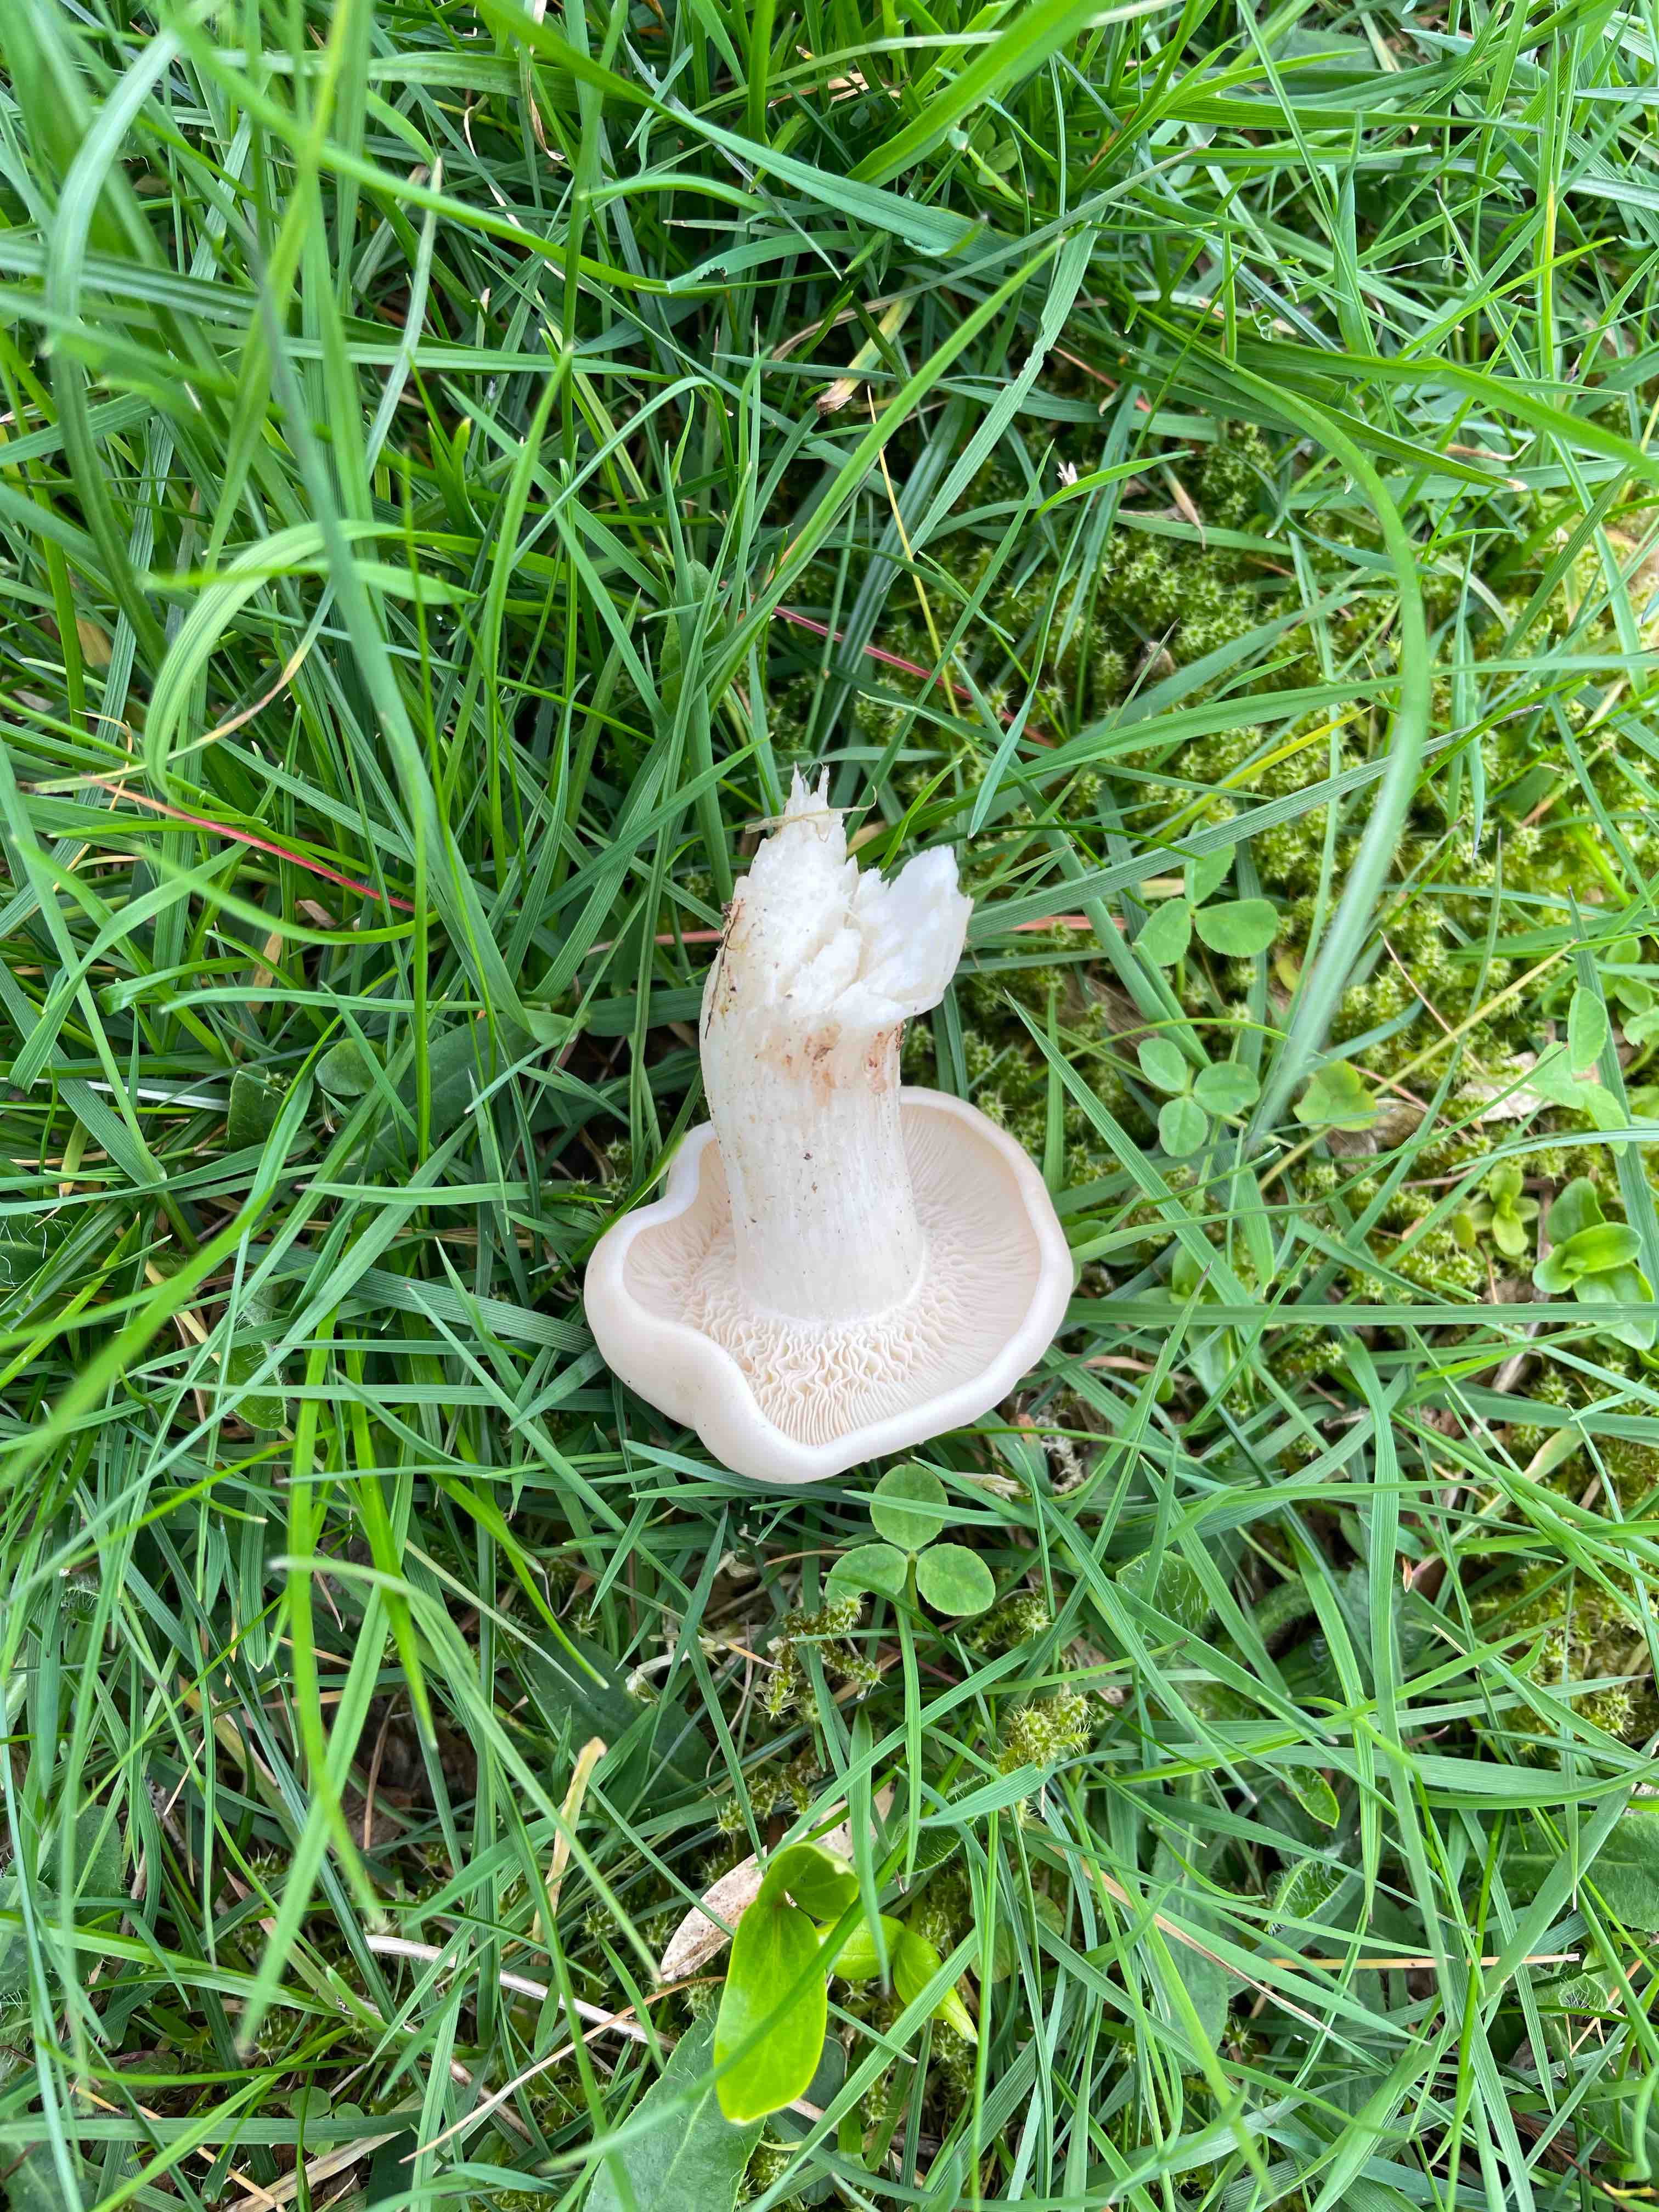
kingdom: Fungi
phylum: Basidiomycota
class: Agaricomycetes
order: Agaricales
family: Lyophyllaceae
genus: Calocybe
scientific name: Calocybe gambosa
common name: vårmusseron
